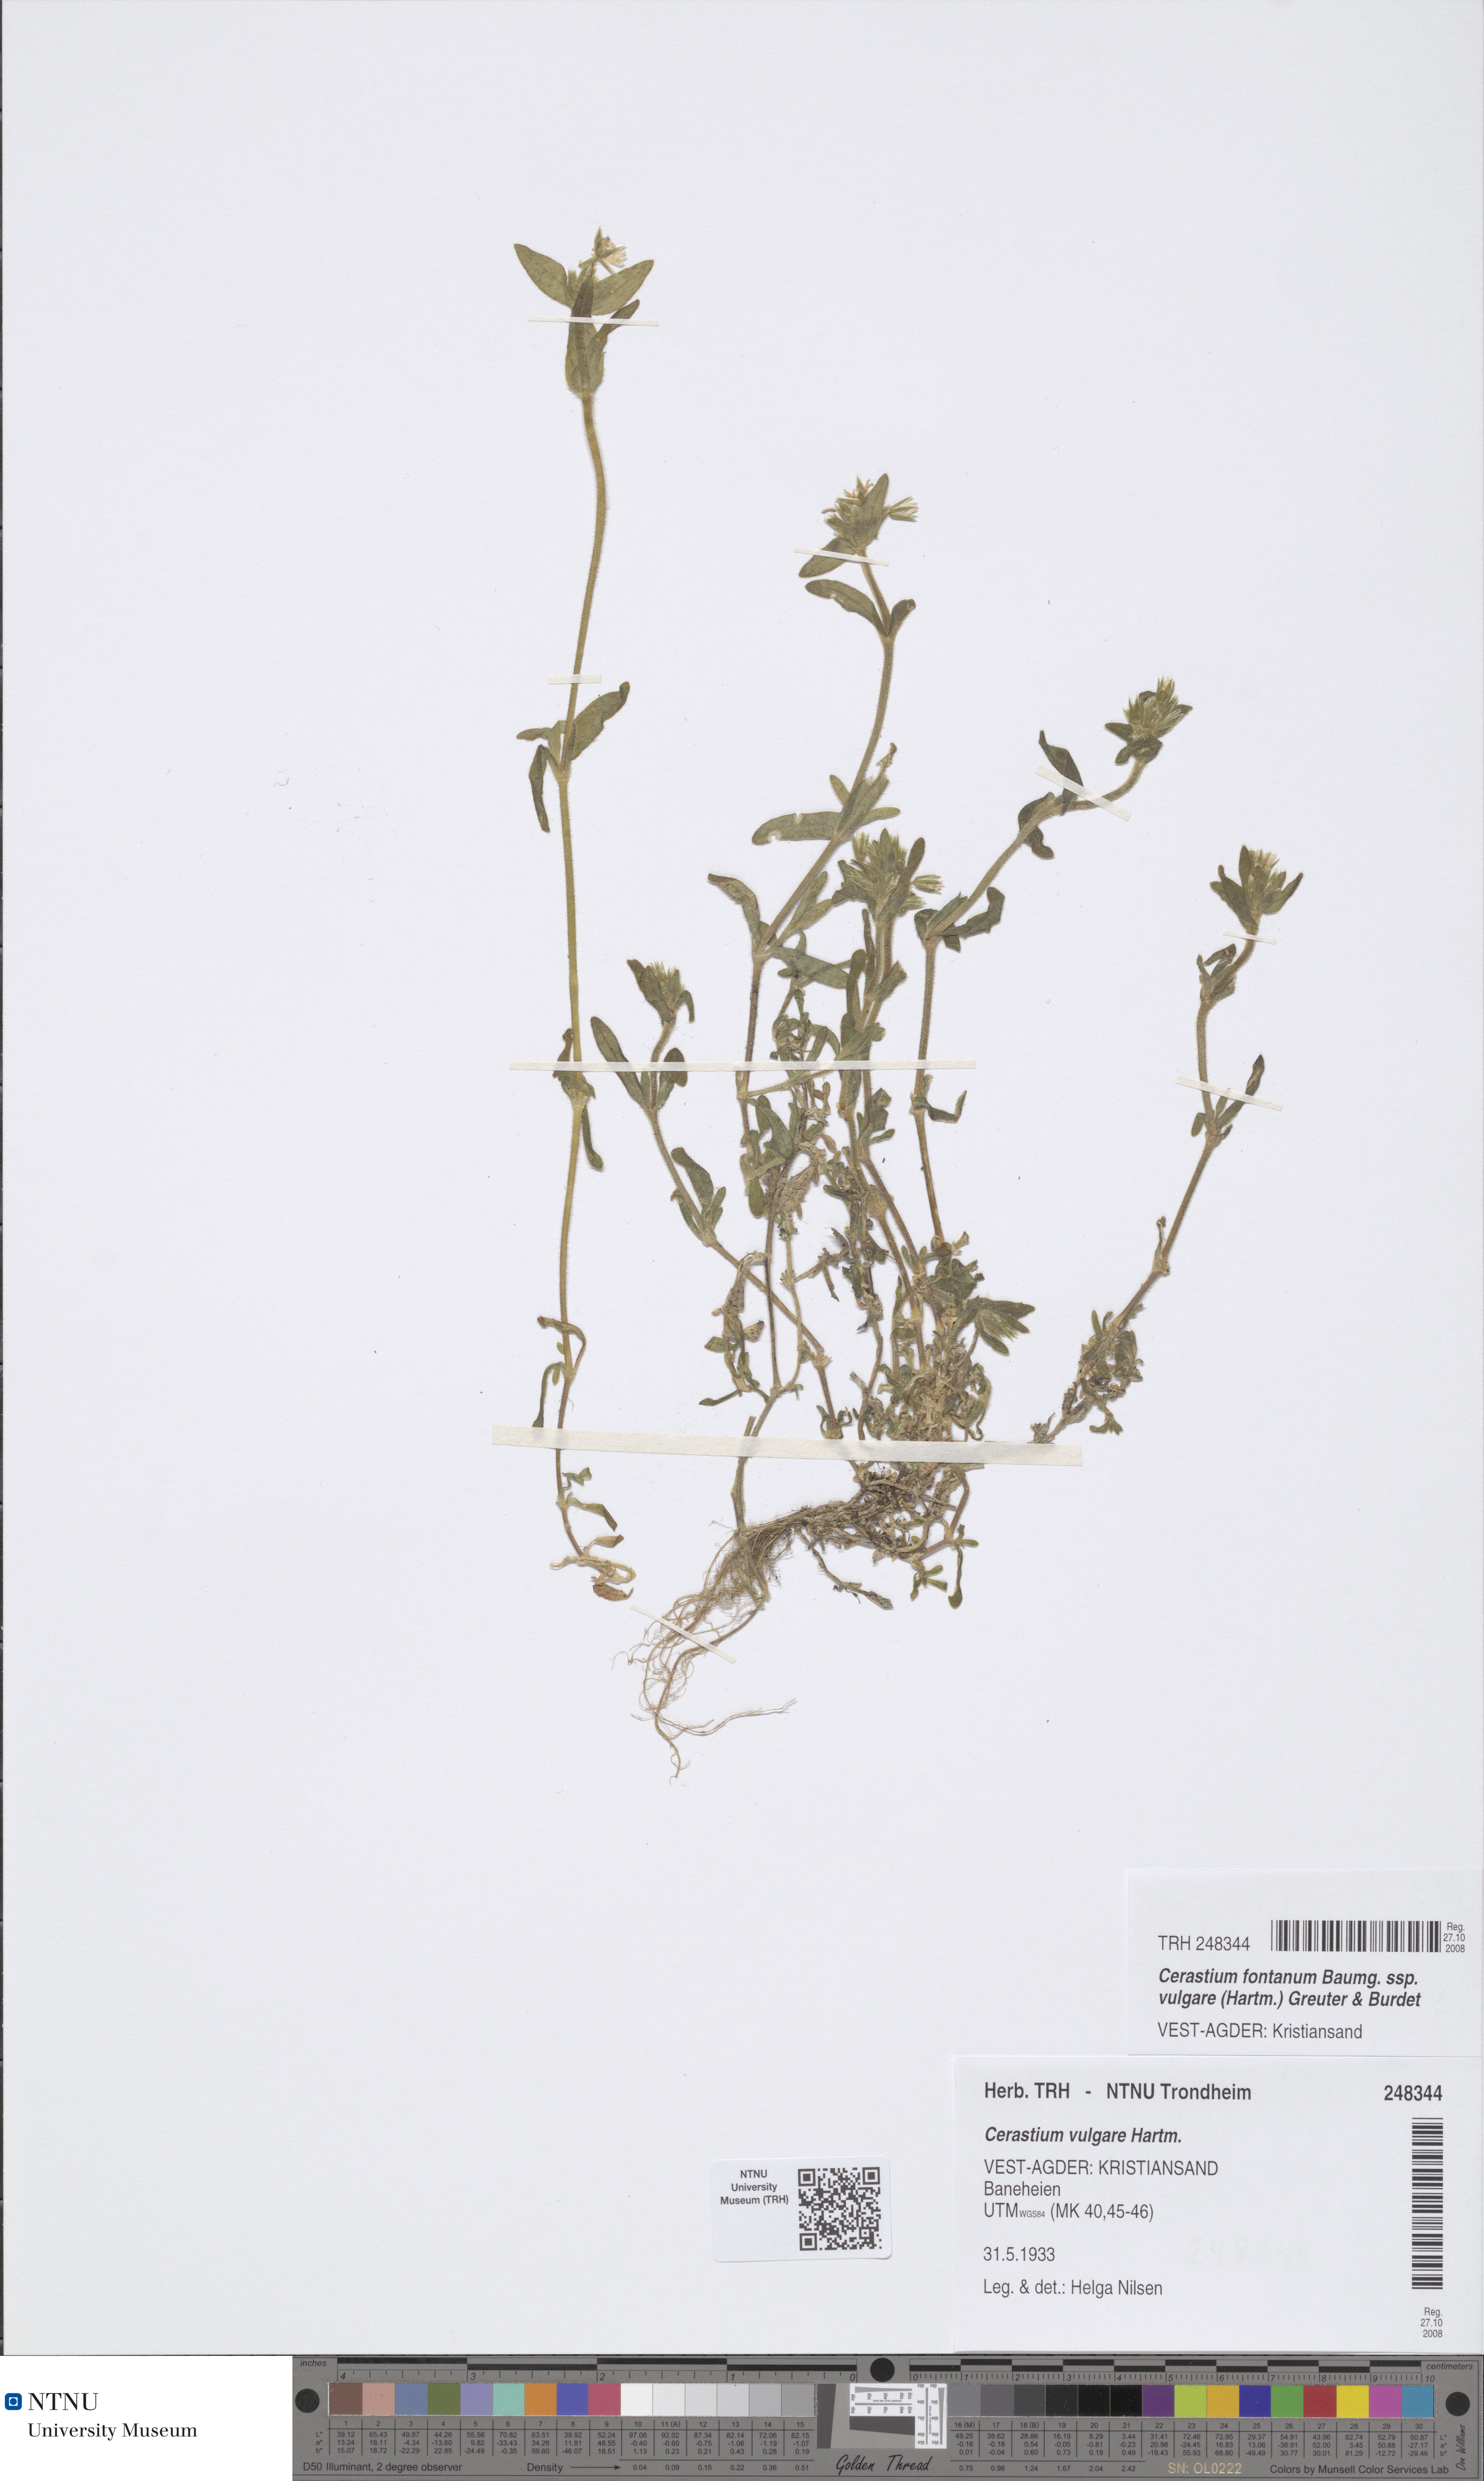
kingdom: Plantae
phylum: Tracheophyta
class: Magnoliopsida
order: Caryophyllales
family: Caryophyllaceae
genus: Cerastium
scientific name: Cerastium holosteoides
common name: Big chickweed
